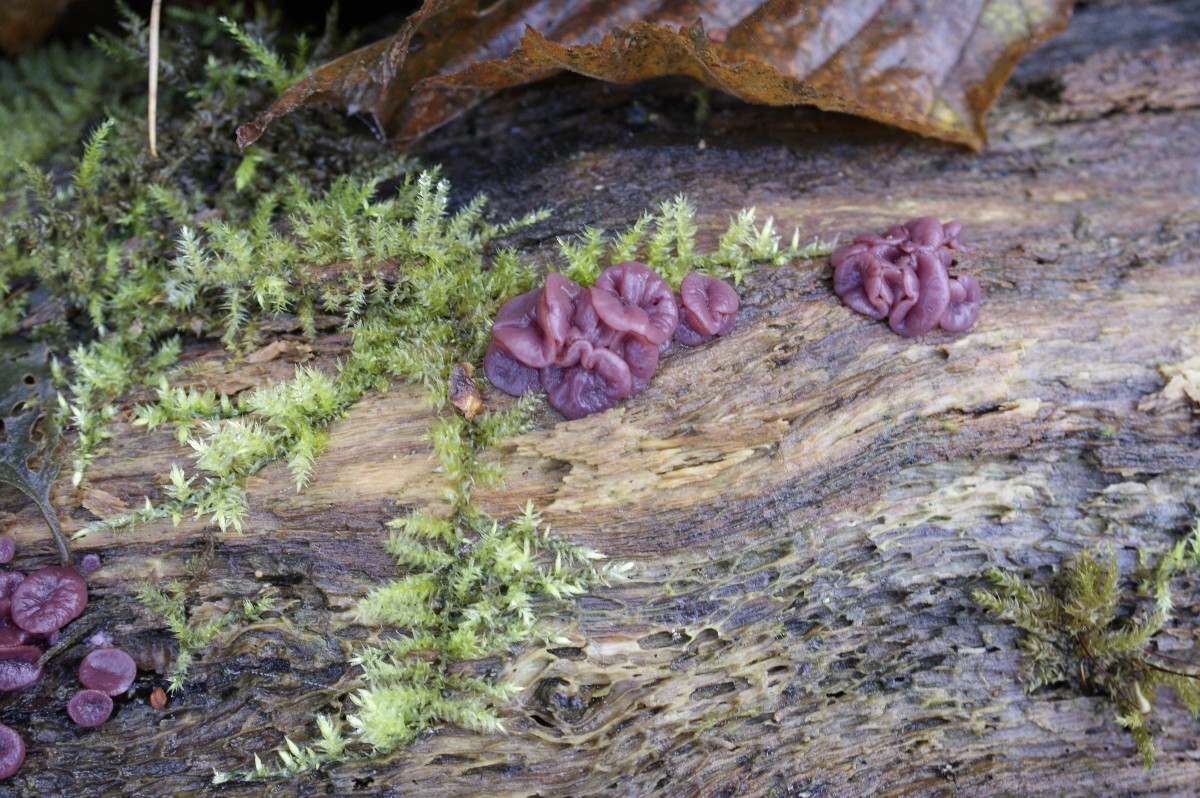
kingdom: Fungi
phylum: Ascomycota
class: Leotiomycetes
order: Helotiales
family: Gelatinodiscaceae
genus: Ascocoryne
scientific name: Ascocoryne cylichnium
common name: stor sejskive
